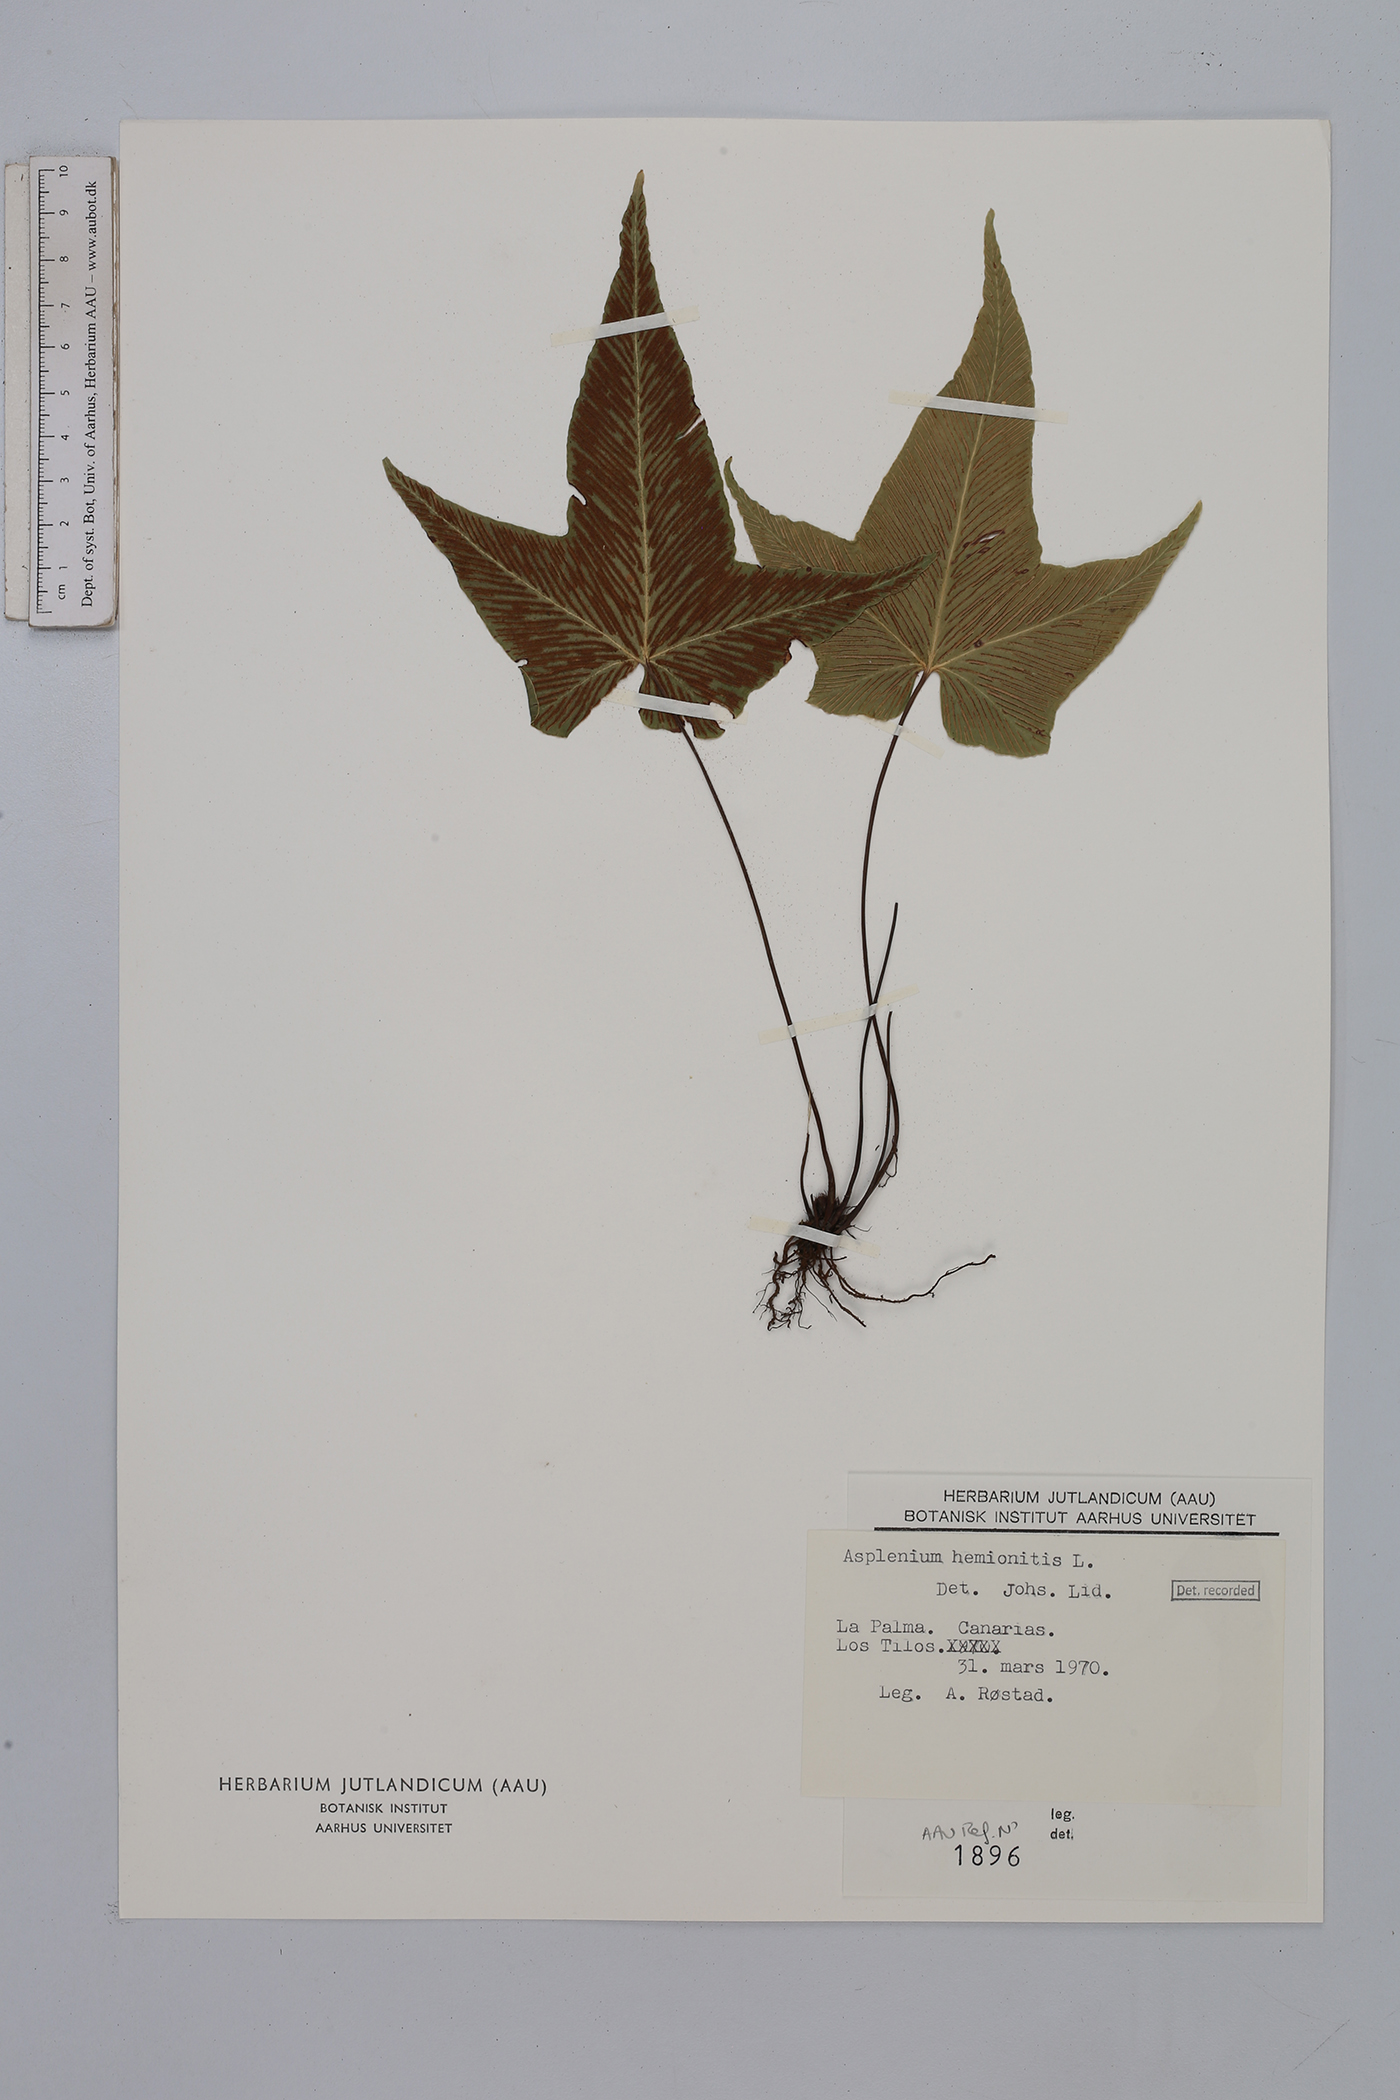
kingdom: Plantae
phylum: Tracheophyta
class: Polypodiopsida
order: Polypodiales
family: Aspleniaceae
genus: Asplenium
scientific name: Asplenium hemionitis
